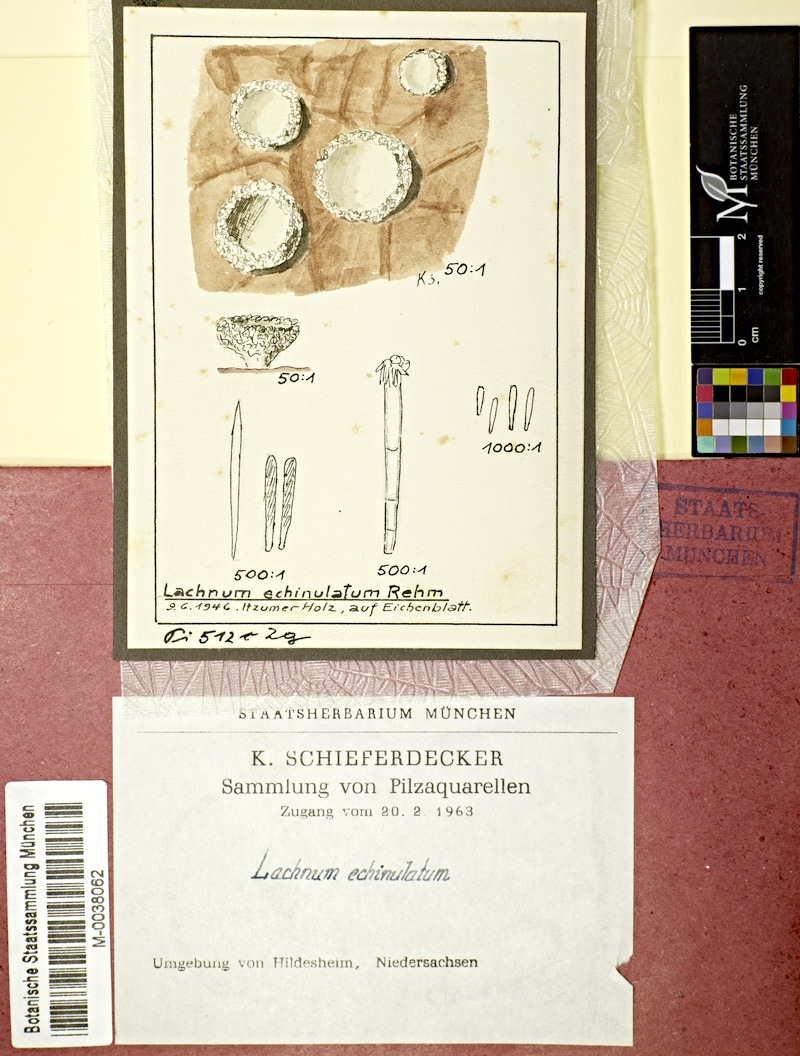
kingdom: Fungi
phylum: Ascomycota
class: Leotiomycetes
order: Helotiales
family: Lachnaceae
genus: Lachnum
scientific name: Lachnum echinulatum
